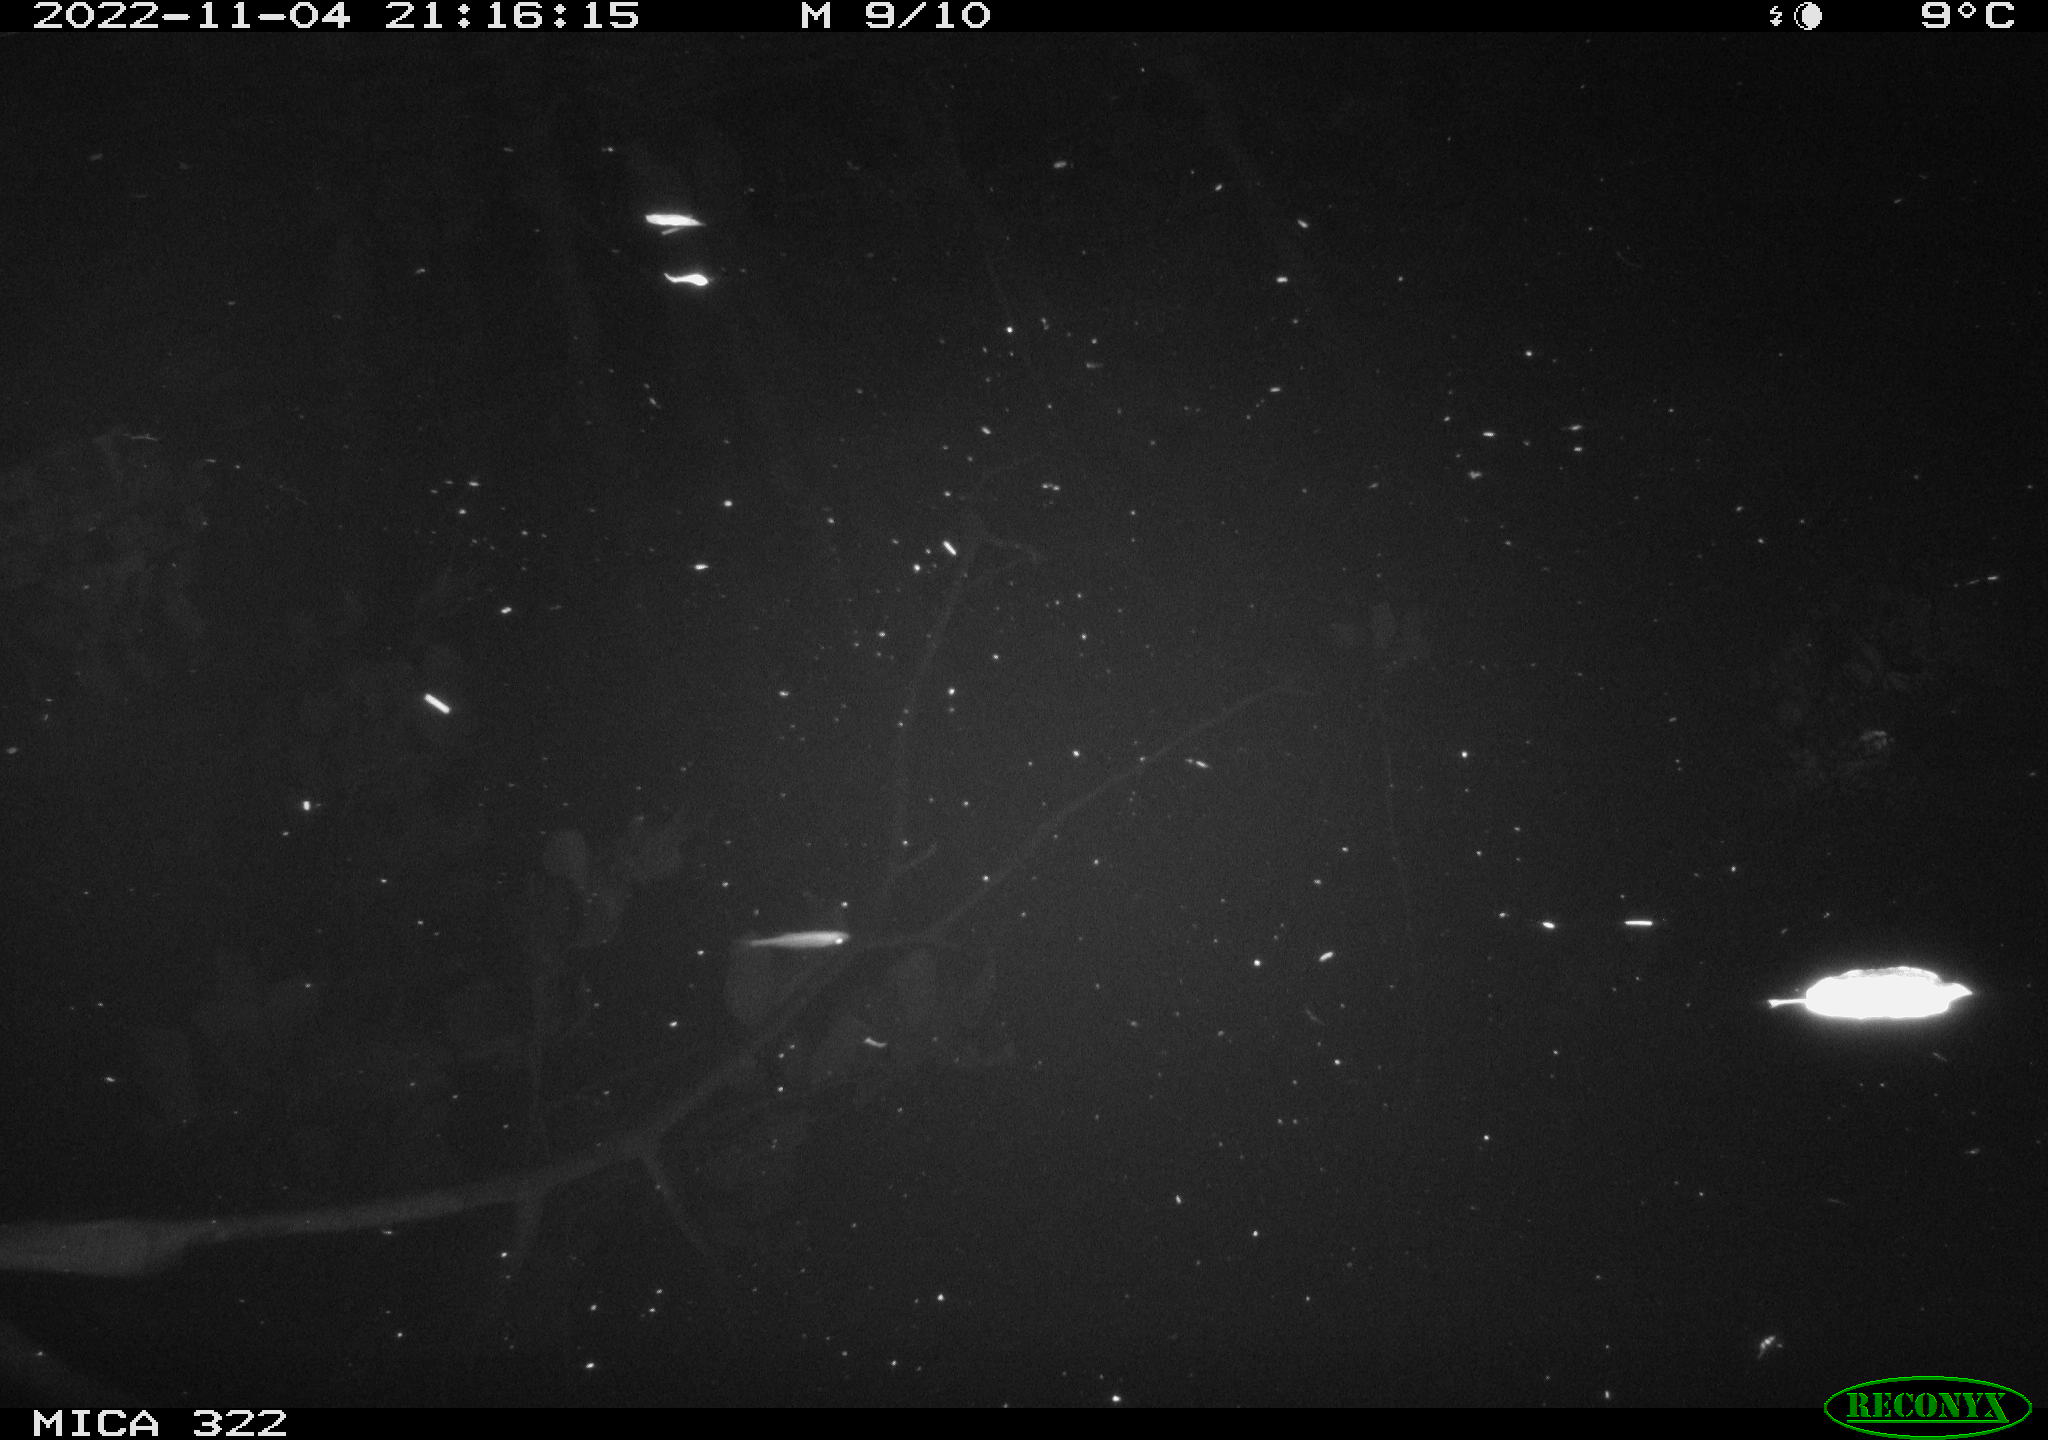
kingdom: Animalia
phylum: Chordata
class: Mammalia
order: Rodentia
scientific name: Rodentia
